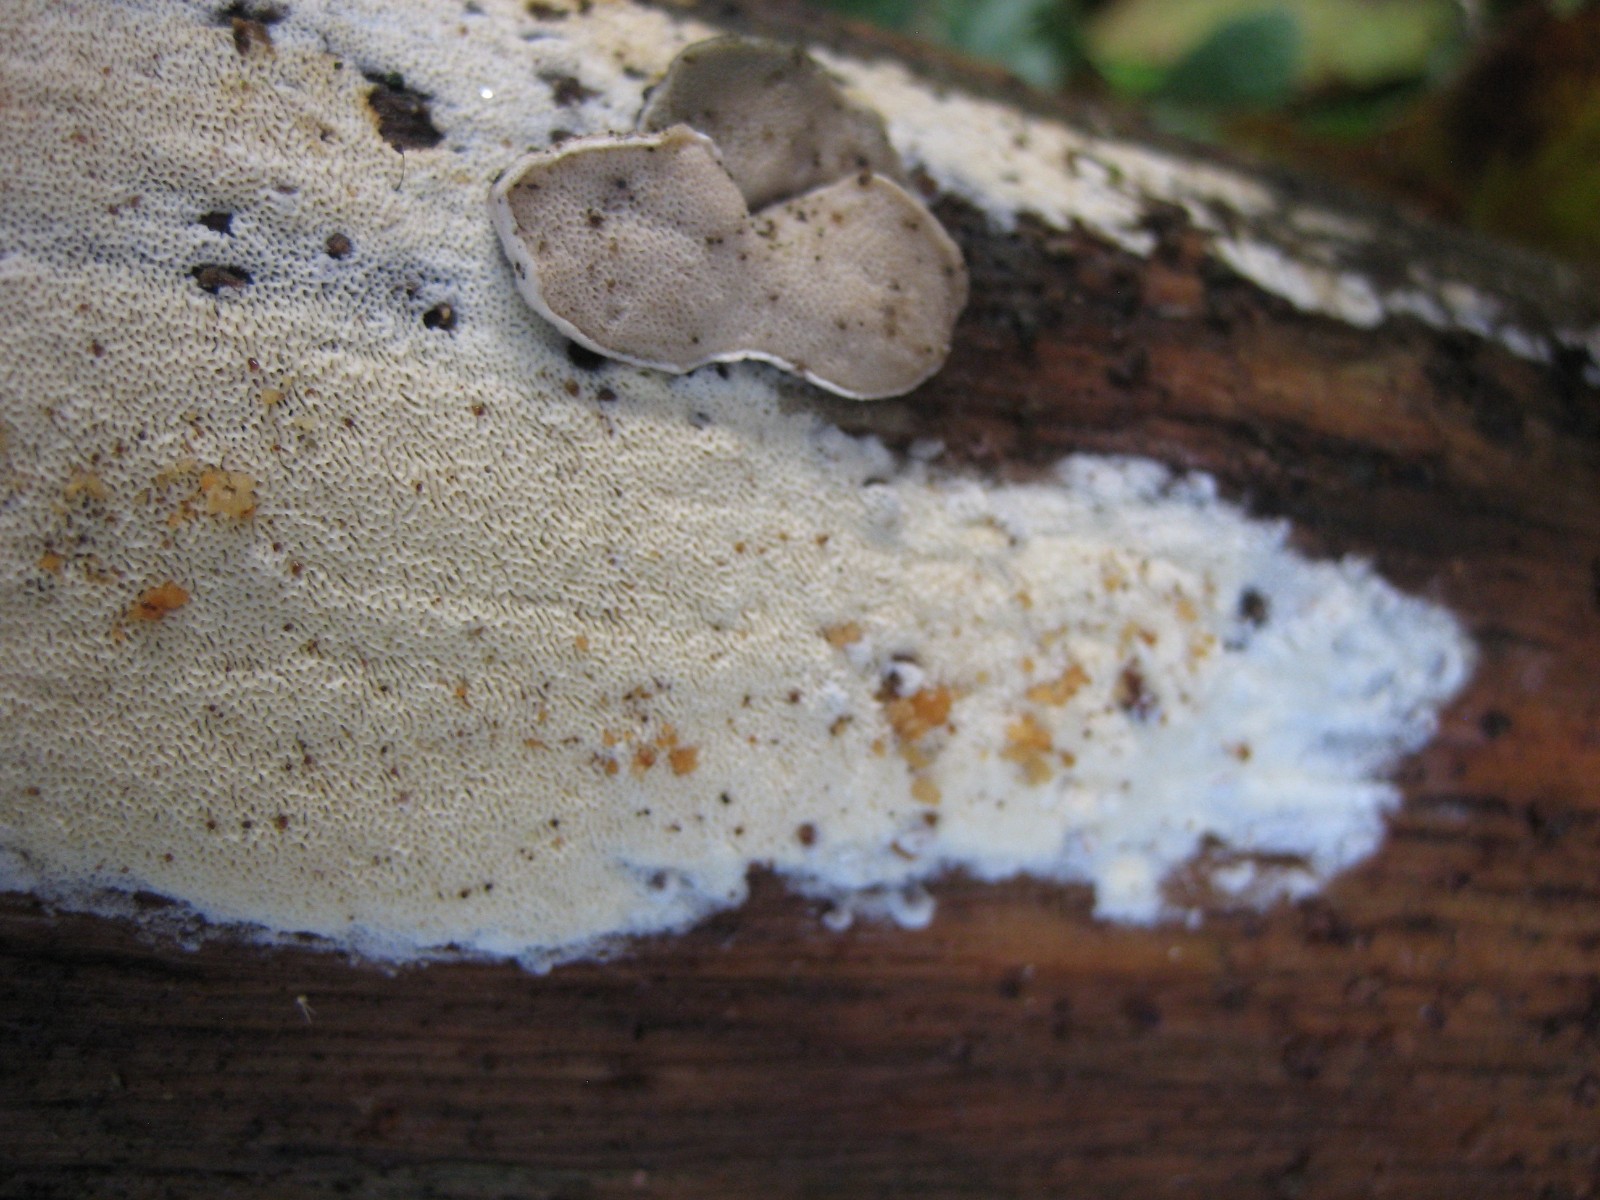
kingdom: Fungi
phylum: Basidiomycota
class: Agaricomycetes
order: Polyporales
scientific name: Polyporales
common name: poresvampordenen
